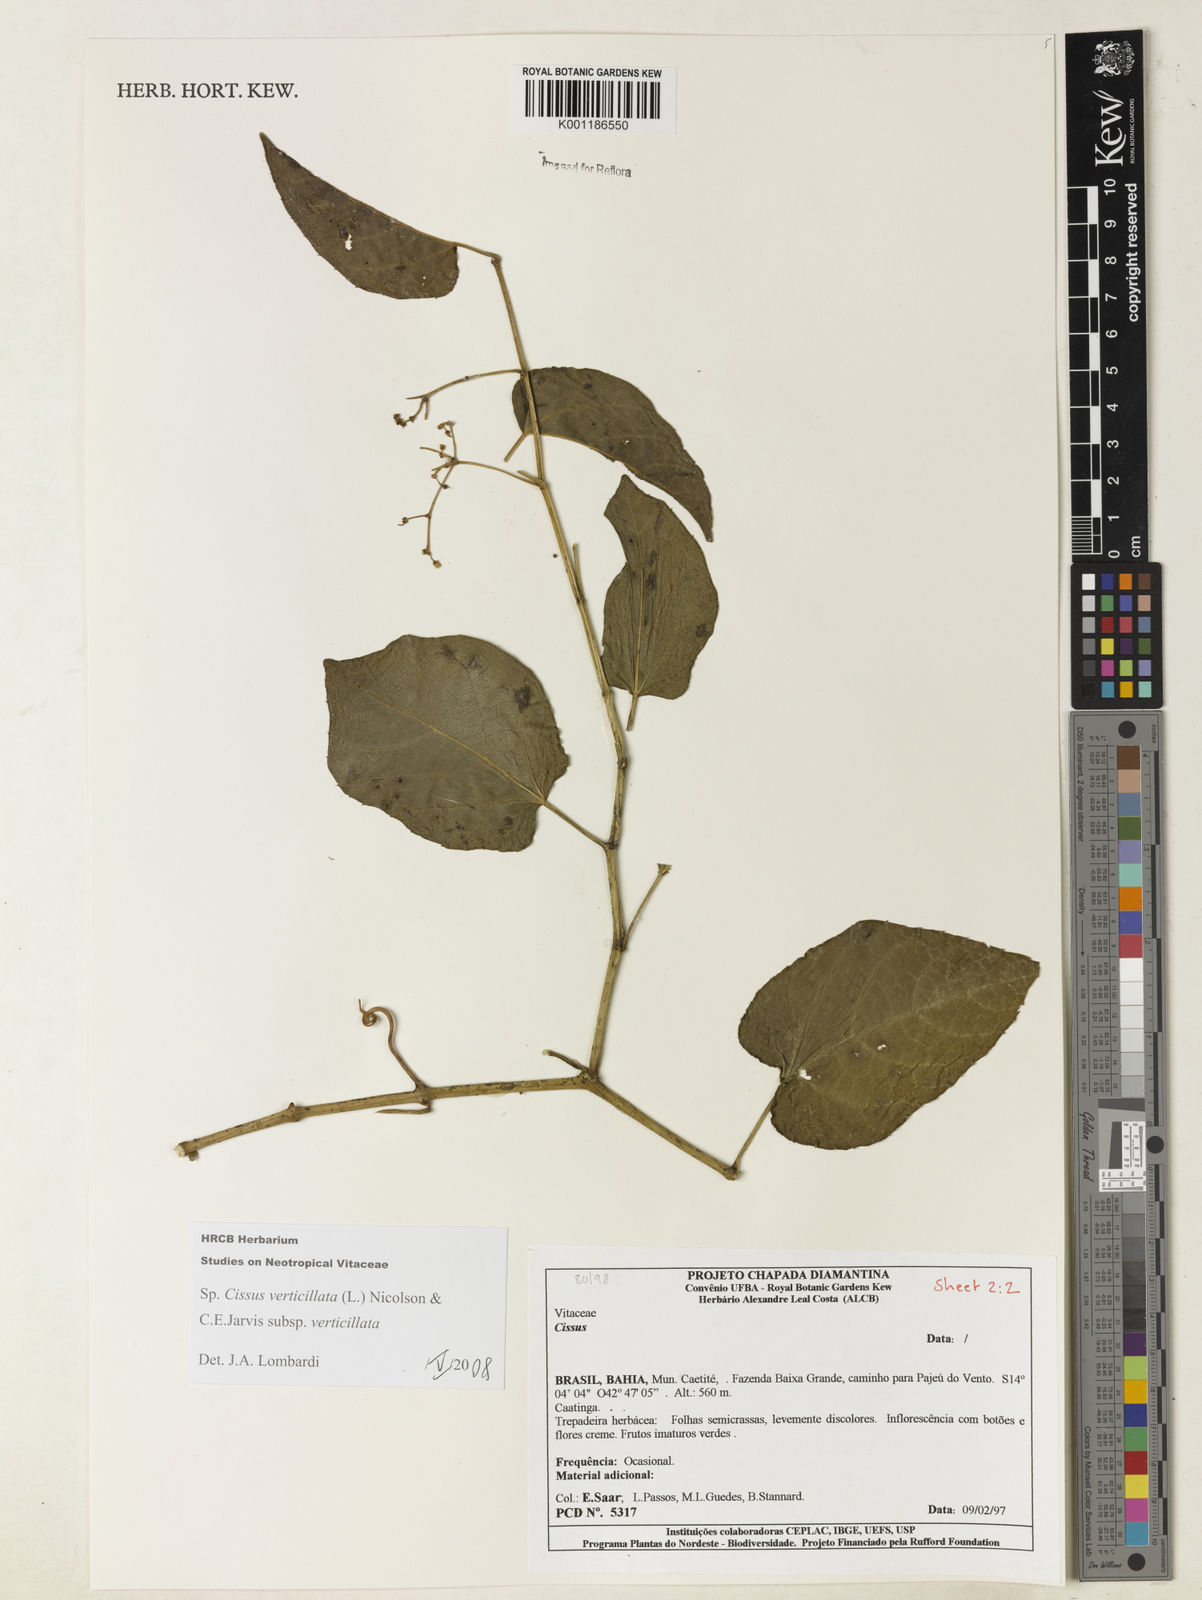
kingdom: Plantae
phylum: Tracheophyta
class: Magnoliopsida
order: Vitales
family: Vitaceae
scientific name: Vitaceae
